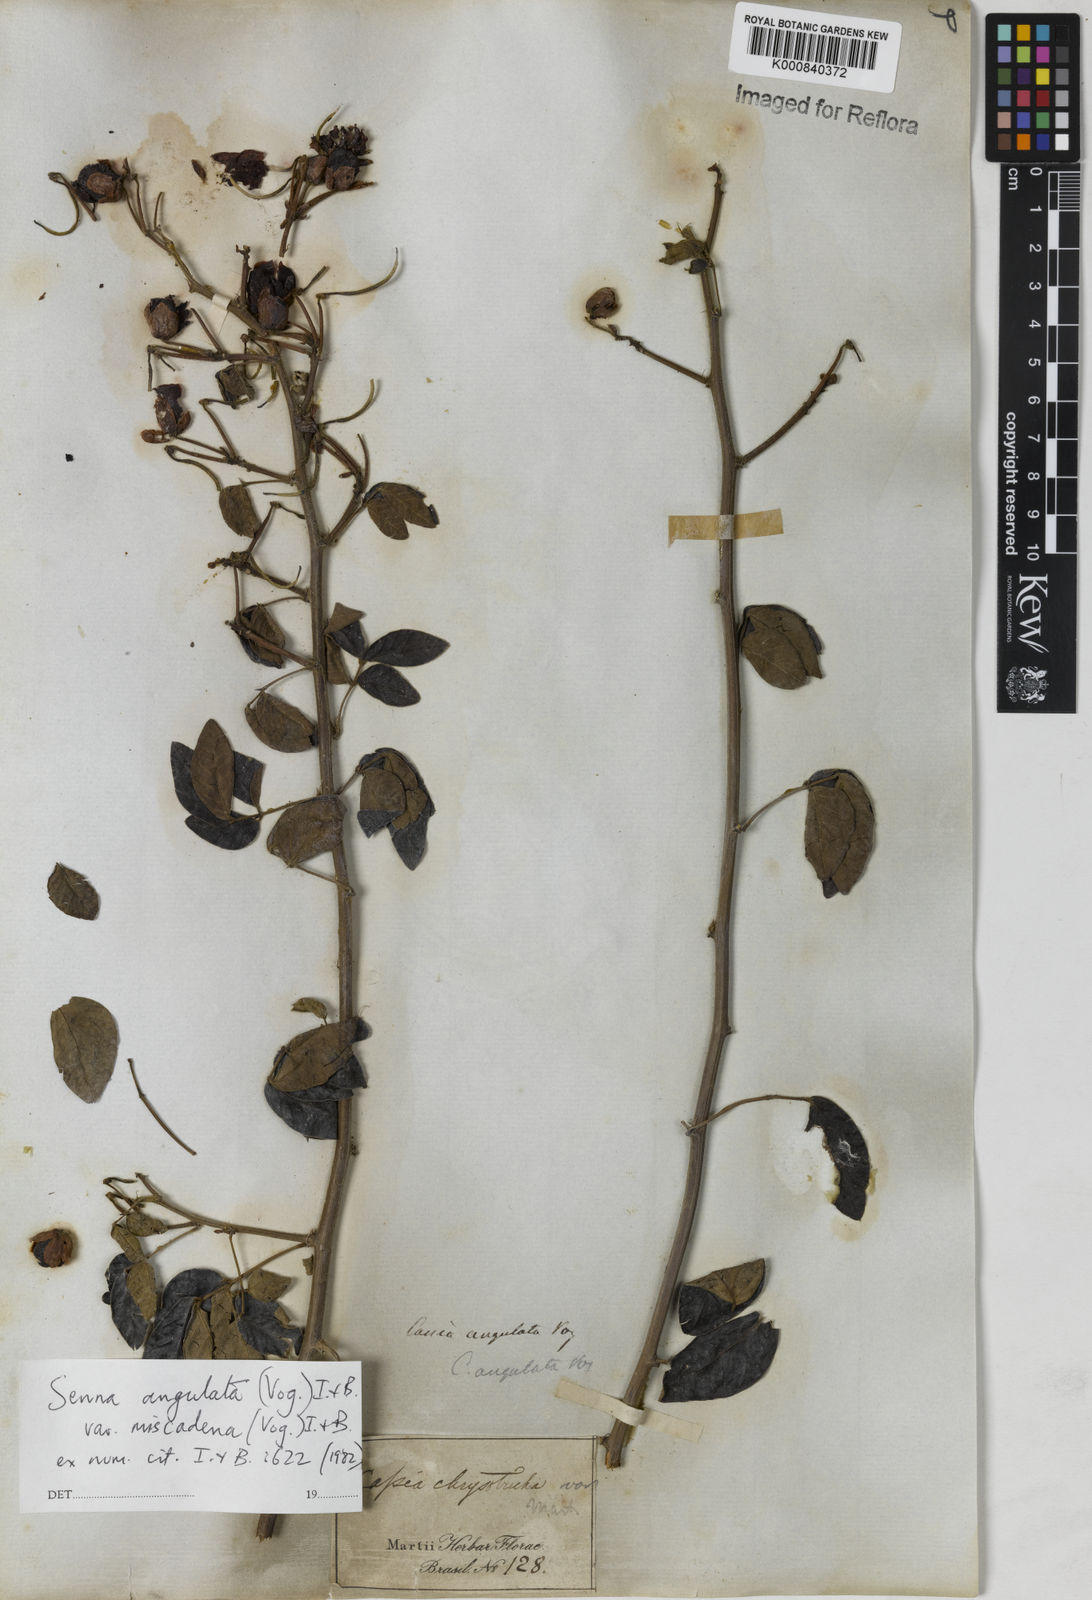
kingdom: Plantae
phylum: Tracheophyta
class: Magnoliopsida
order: Fabales
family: Fabaceae
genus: Senna
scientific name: Senna angulata
